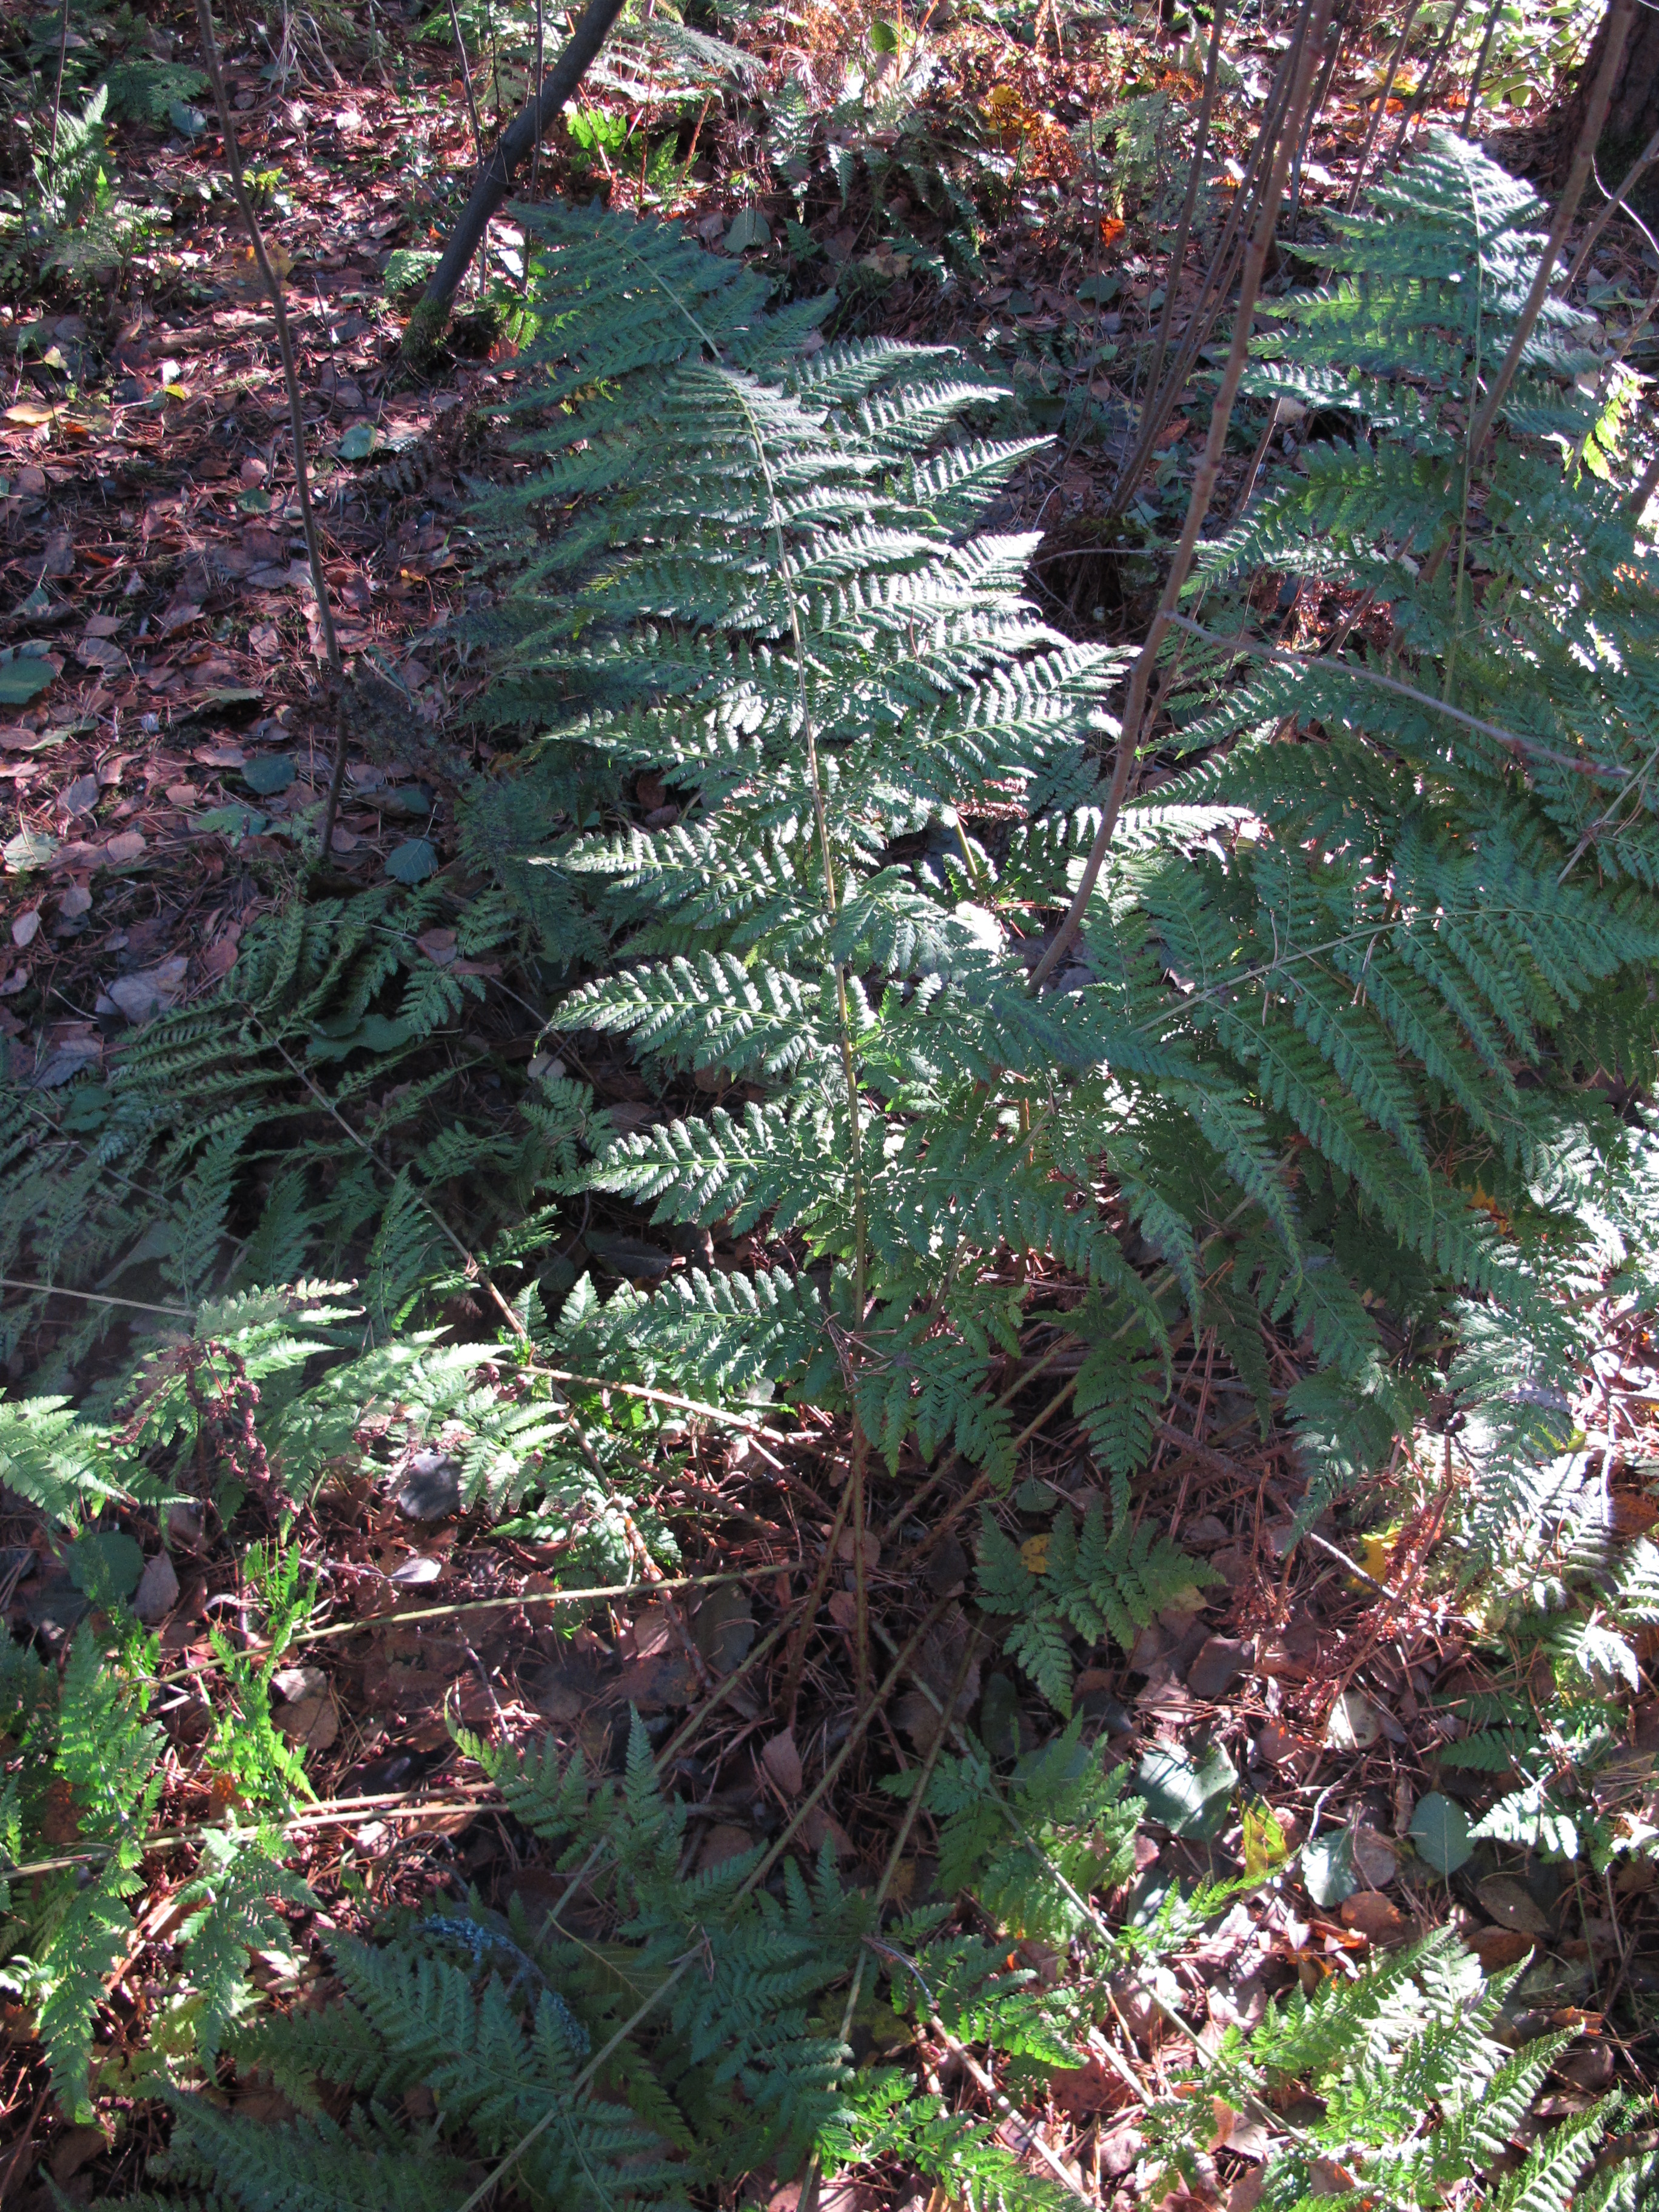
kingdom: Plantae
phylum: Tracheophyta
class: Polypodiopsida
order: Polypodiales
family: Dryopteridaceae
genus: Dryopteris
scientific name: Dryopteris dilatata
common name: Broad buckler-fern
